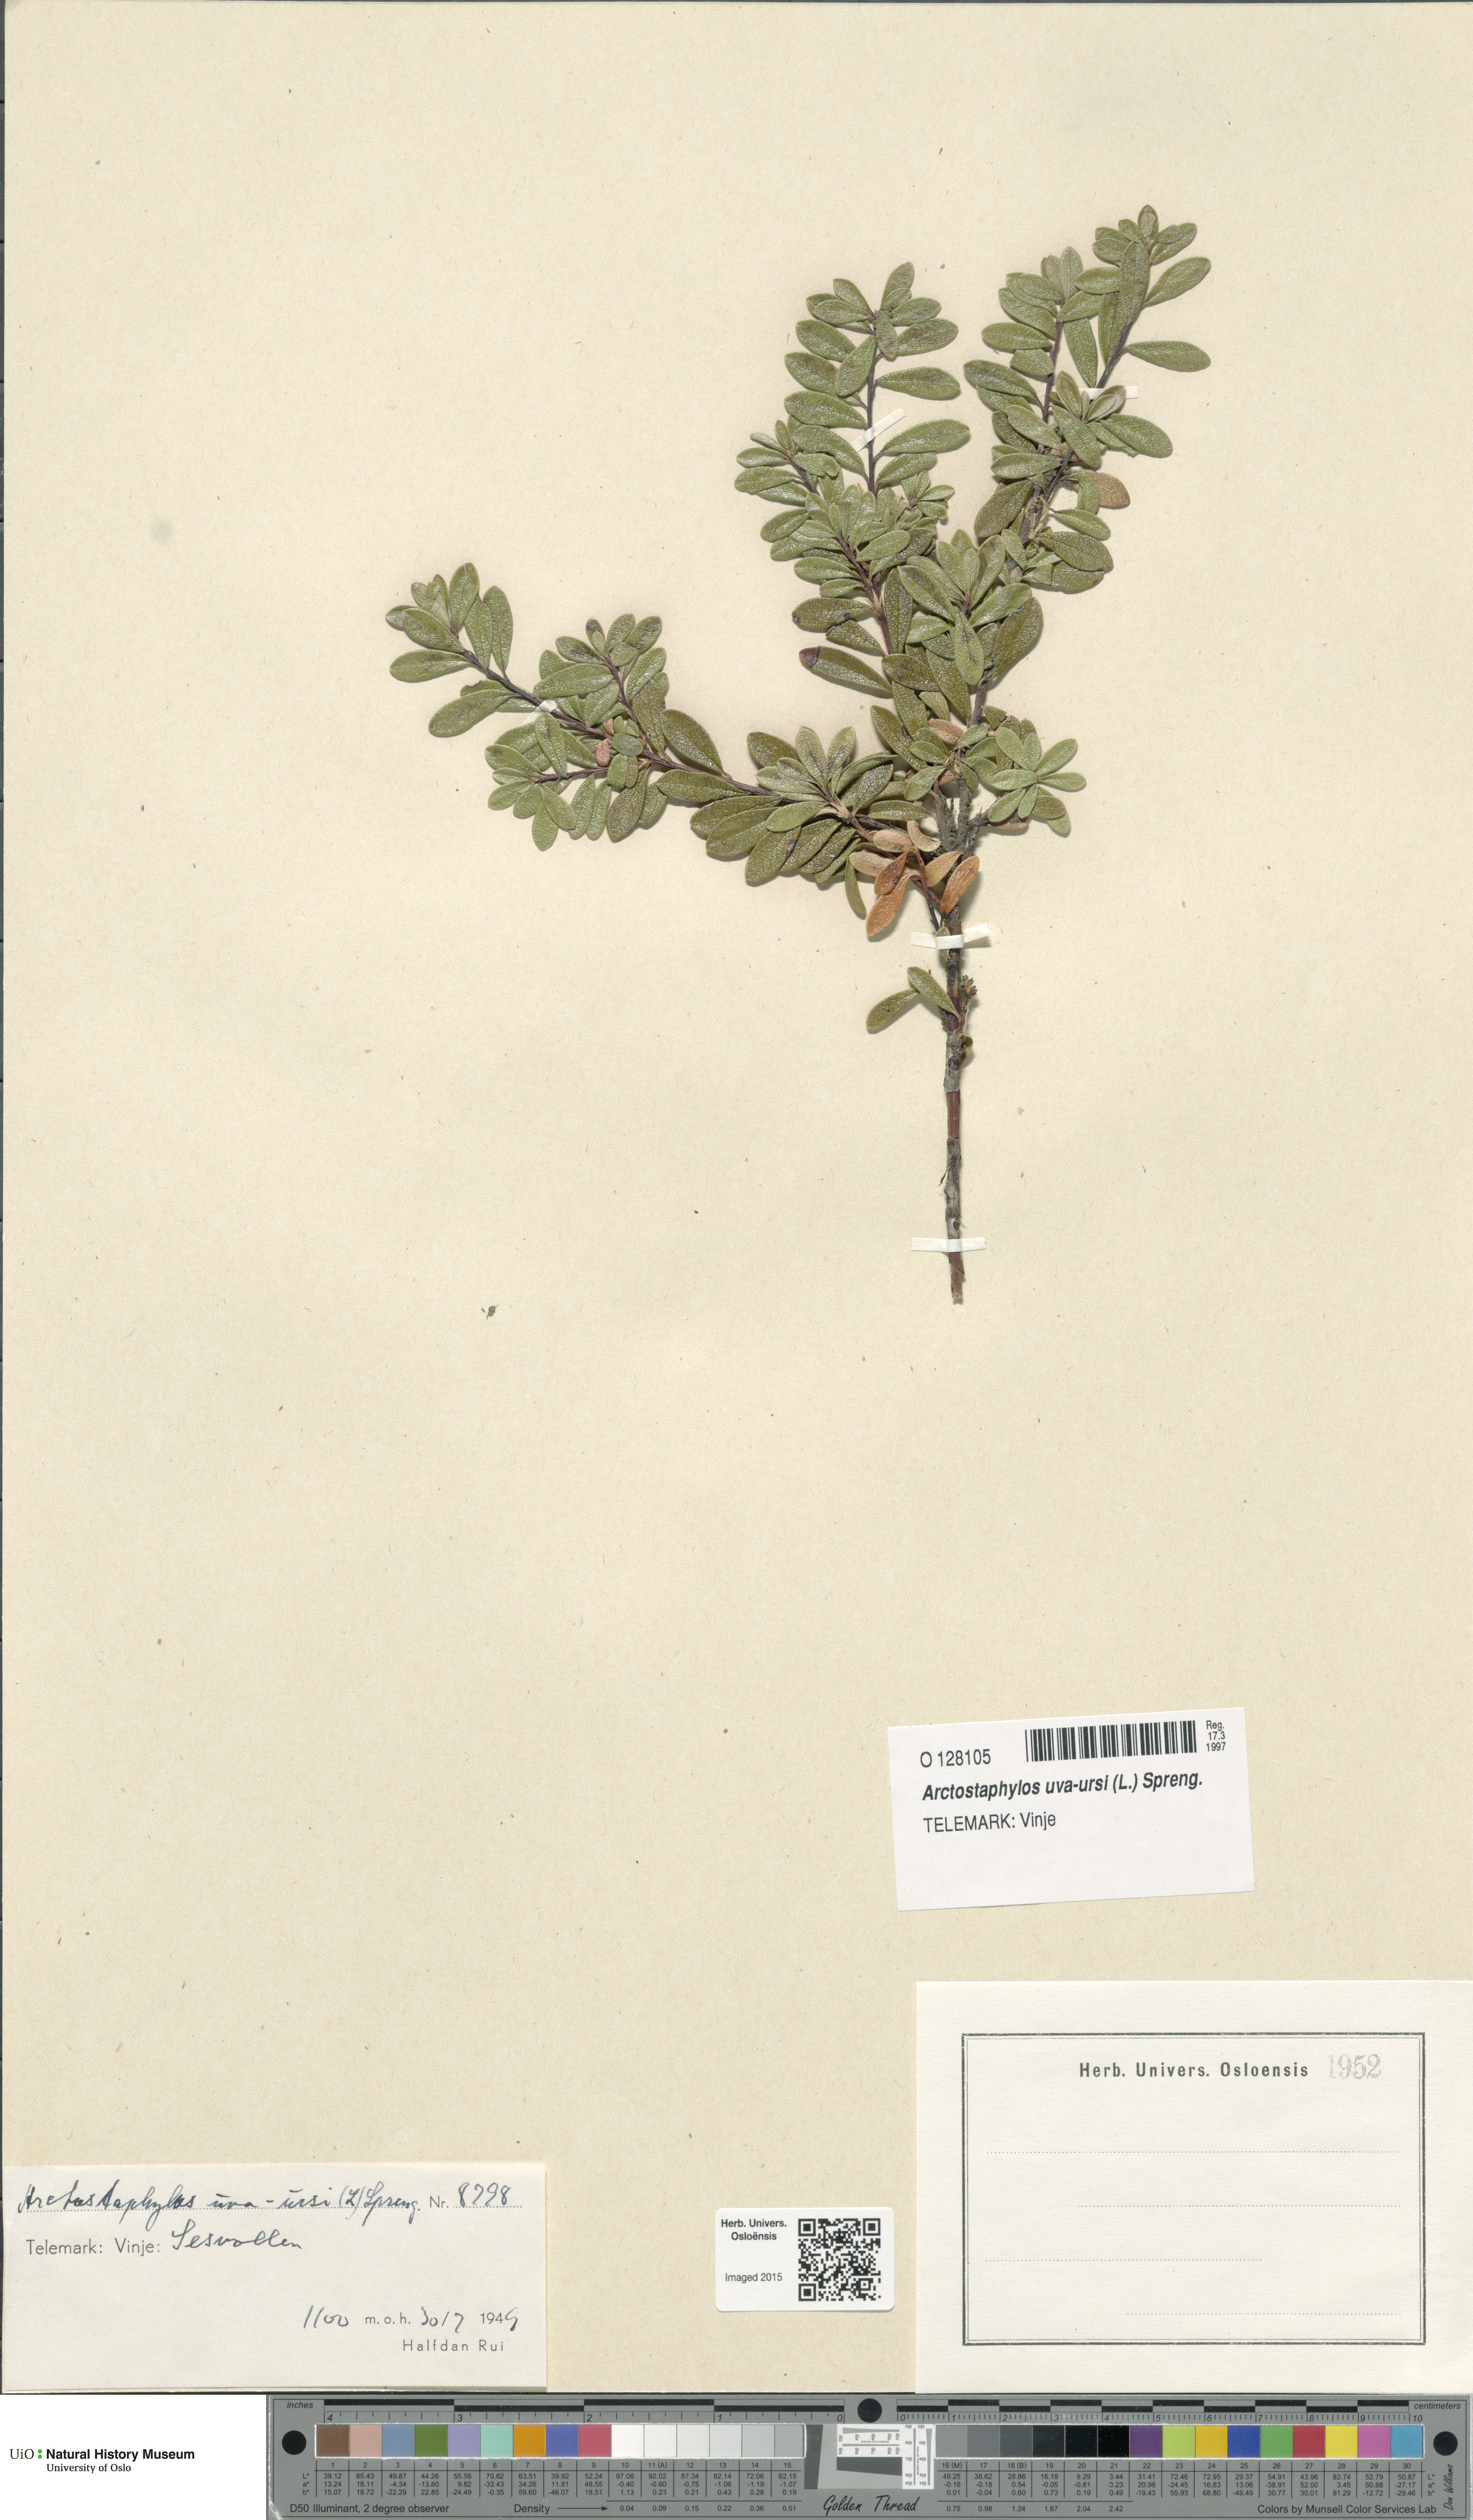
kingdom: Plantae
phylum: Tracheophyta
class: Magnoliopsida
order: Ericales
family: Ericaceae
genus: Arctostaphylos
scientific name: Arctostaphylos uva-ursi
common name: Bearberry
